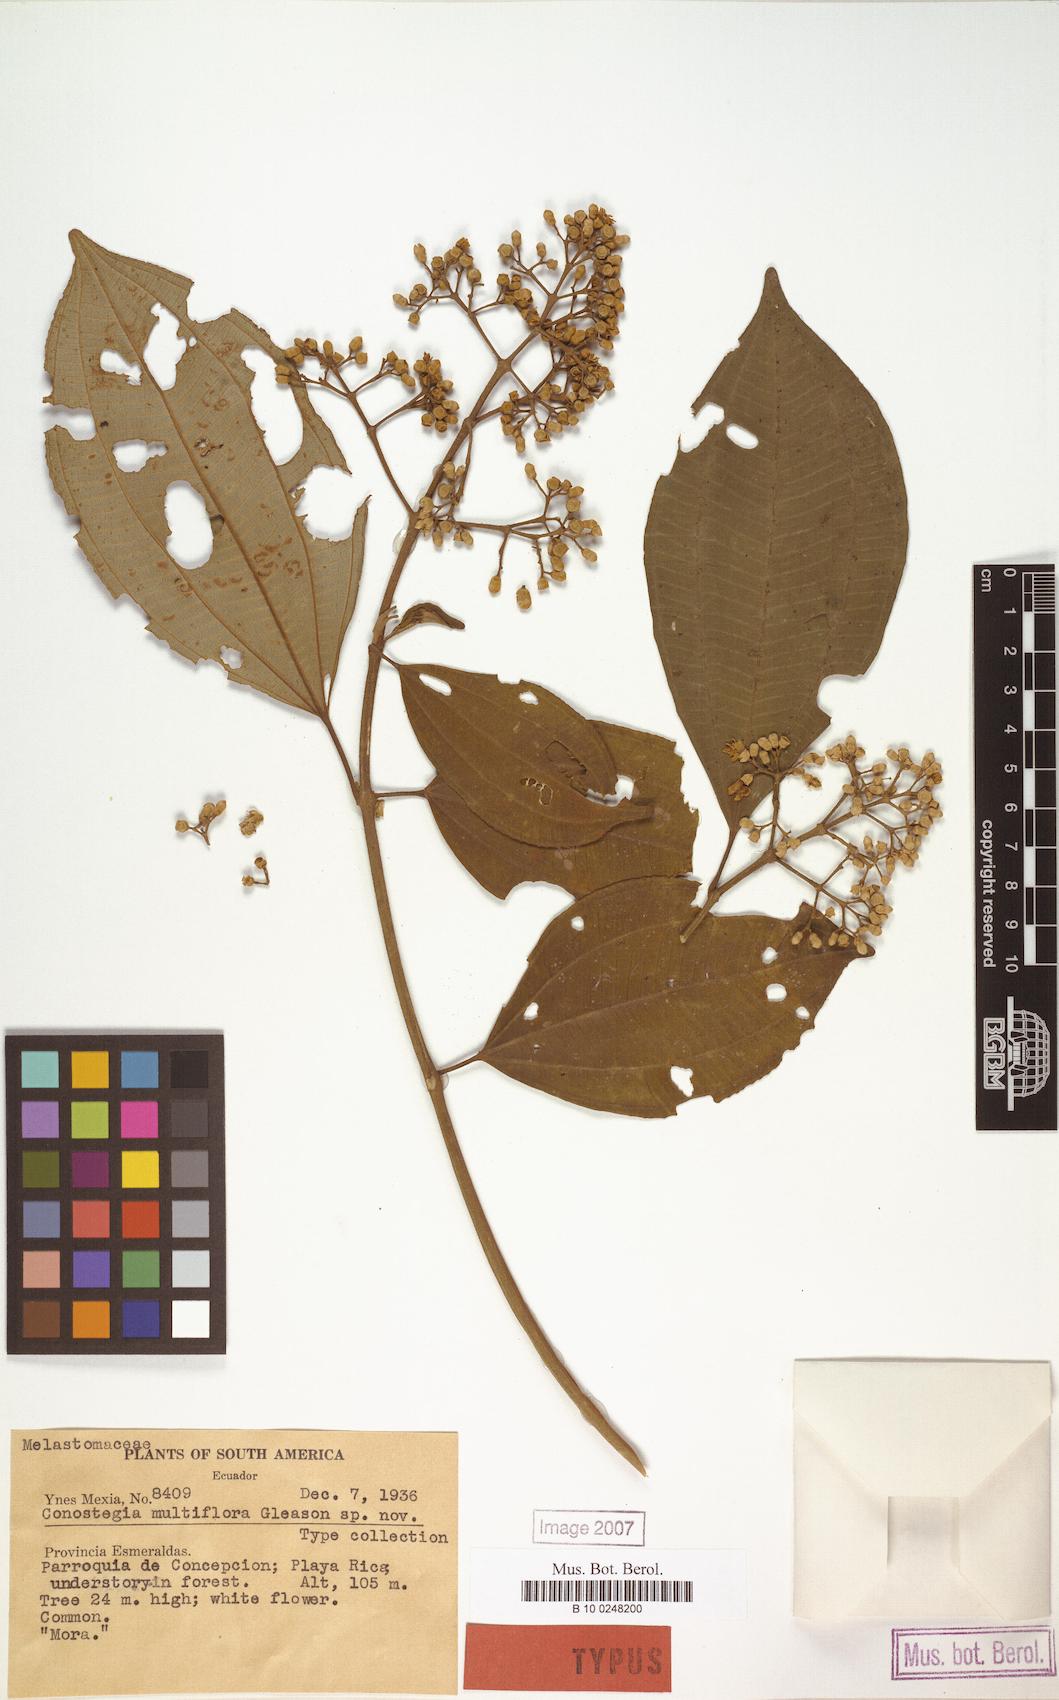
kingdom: Plantae
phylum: Tracheophyta
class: Magnoliopsida
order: Myrtales
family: Melastomataceae
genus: Miconia
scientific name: Miconia cooperi
